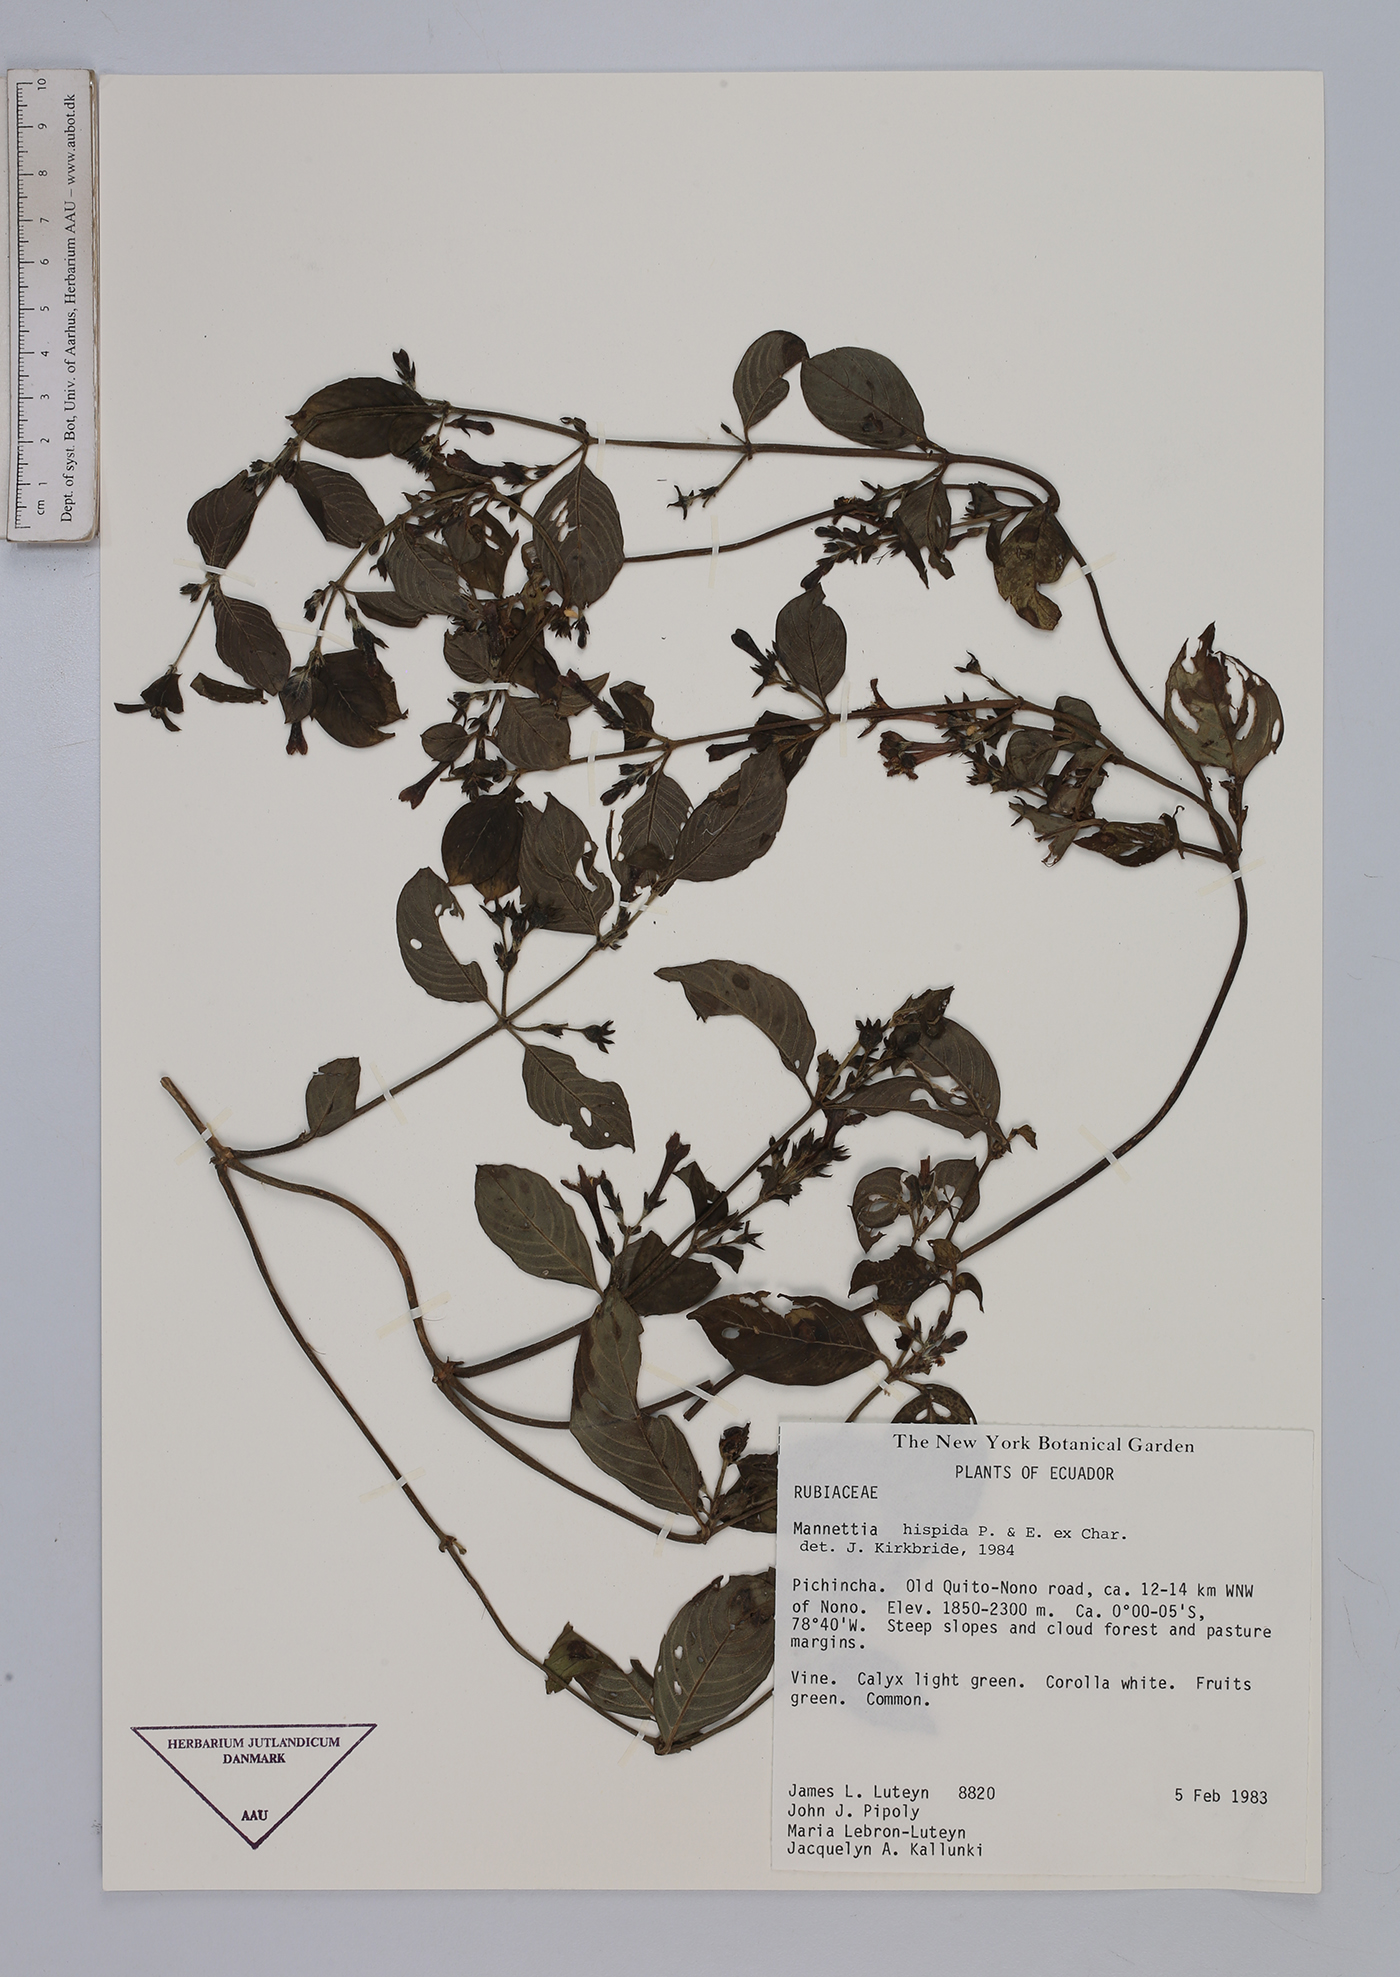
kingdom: Plantae
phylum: Tracheophyta
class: Magnoliopsida
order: Gentianales
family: Rubiaceae
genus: Manettia
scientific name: Manettia hispida
